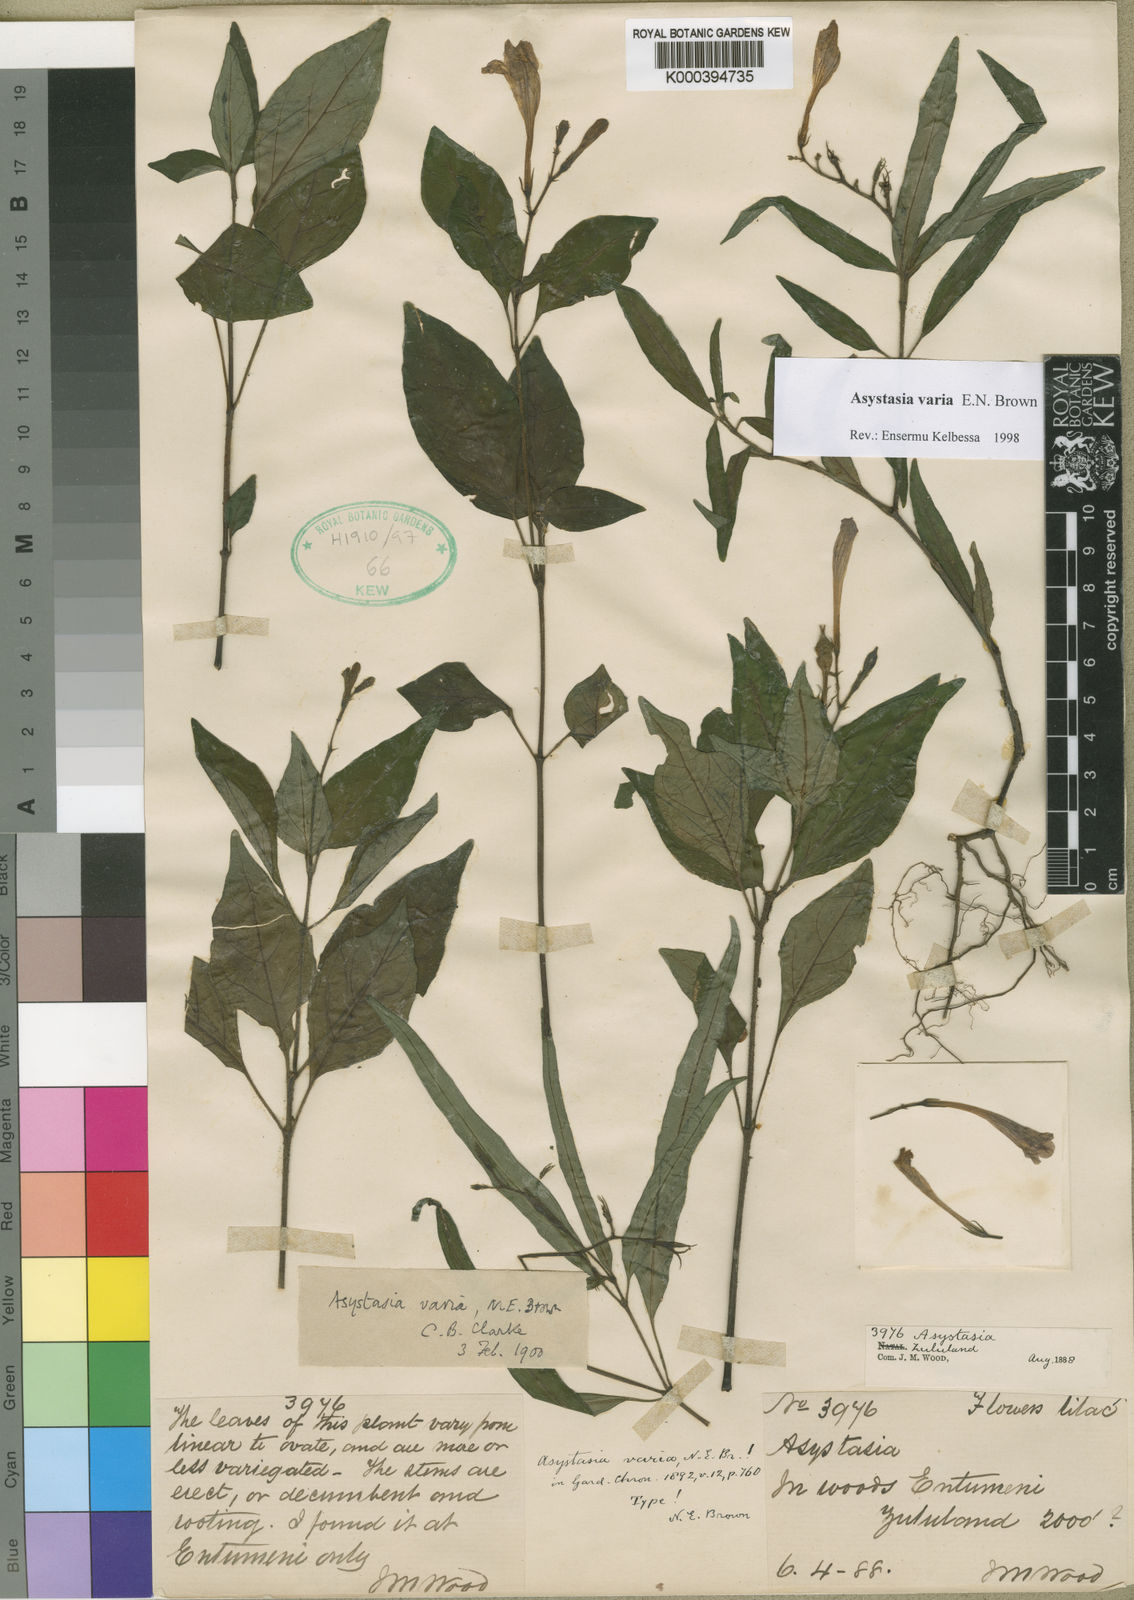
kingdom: Plantae
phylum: Tracheophyta
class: Magnoliopsida
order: Lamiales
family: Acanthaceae
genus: Asystasia
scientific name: Asystasia varia
